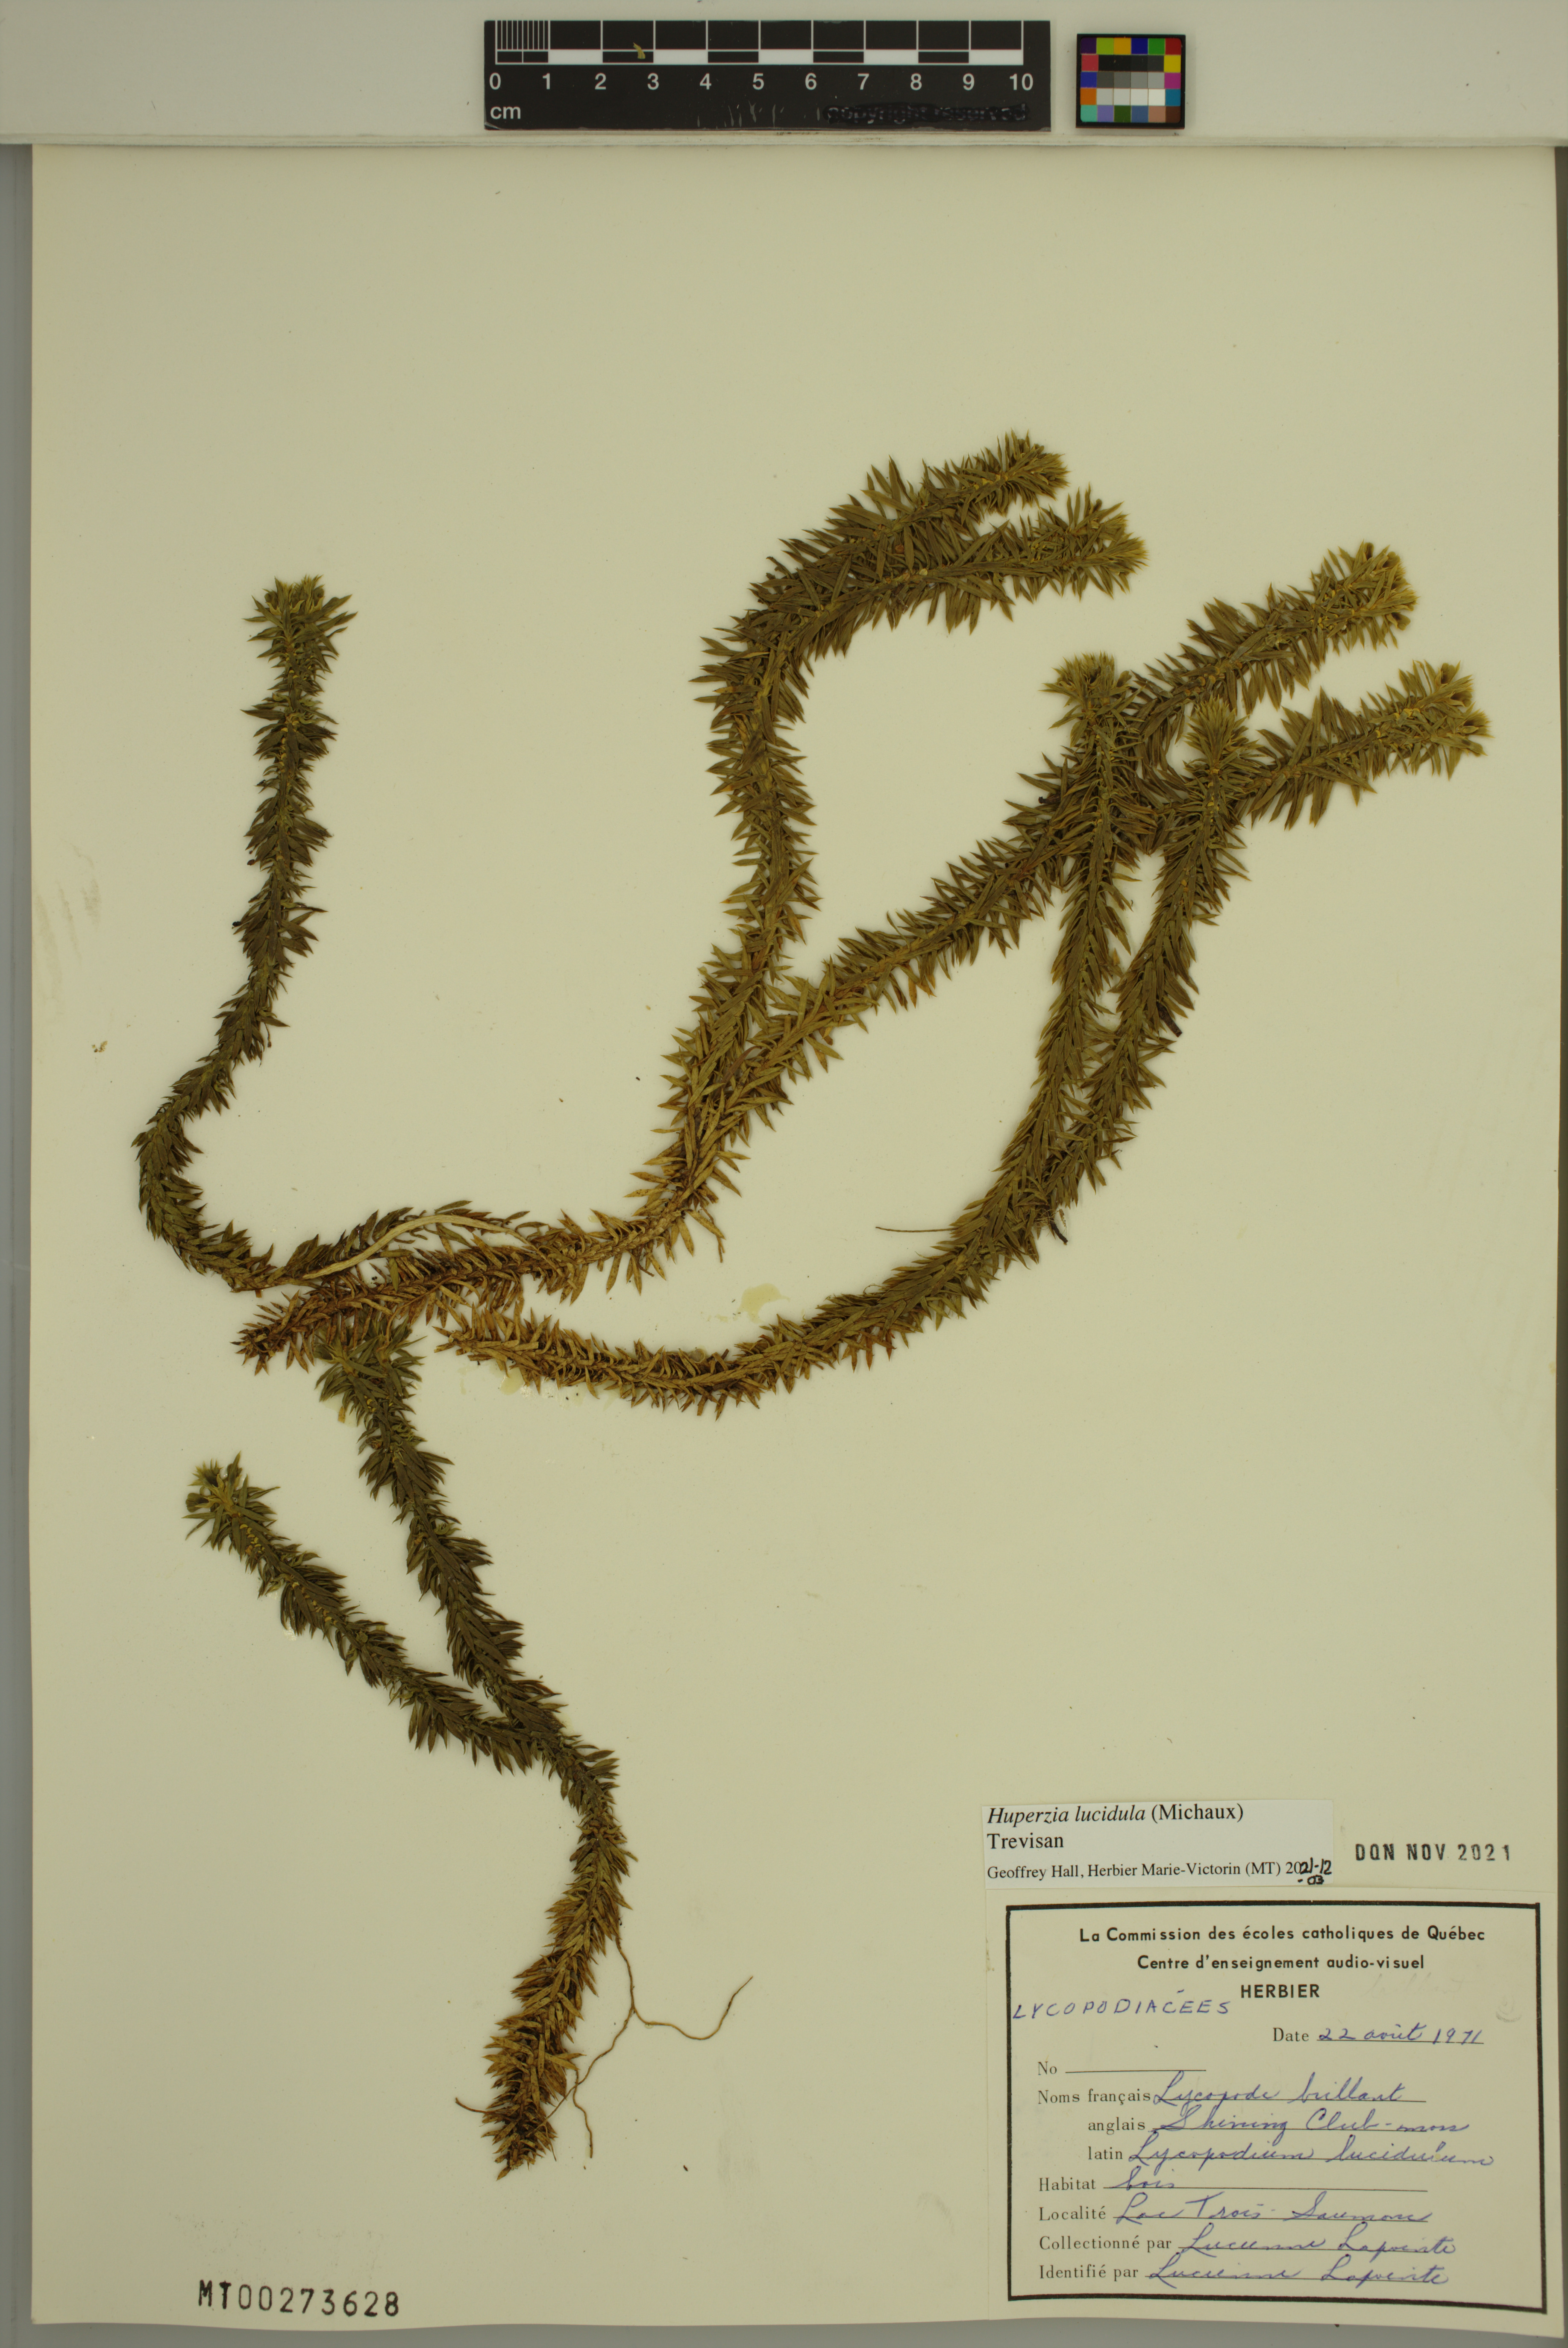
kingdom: Plantae
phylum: Tracheophyta
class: Lycopodiopsida
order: Lycopodiales
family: Lycopodiaceae
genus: Huperzia
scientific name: Huperzia lucidula
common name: Shining clubmoss
